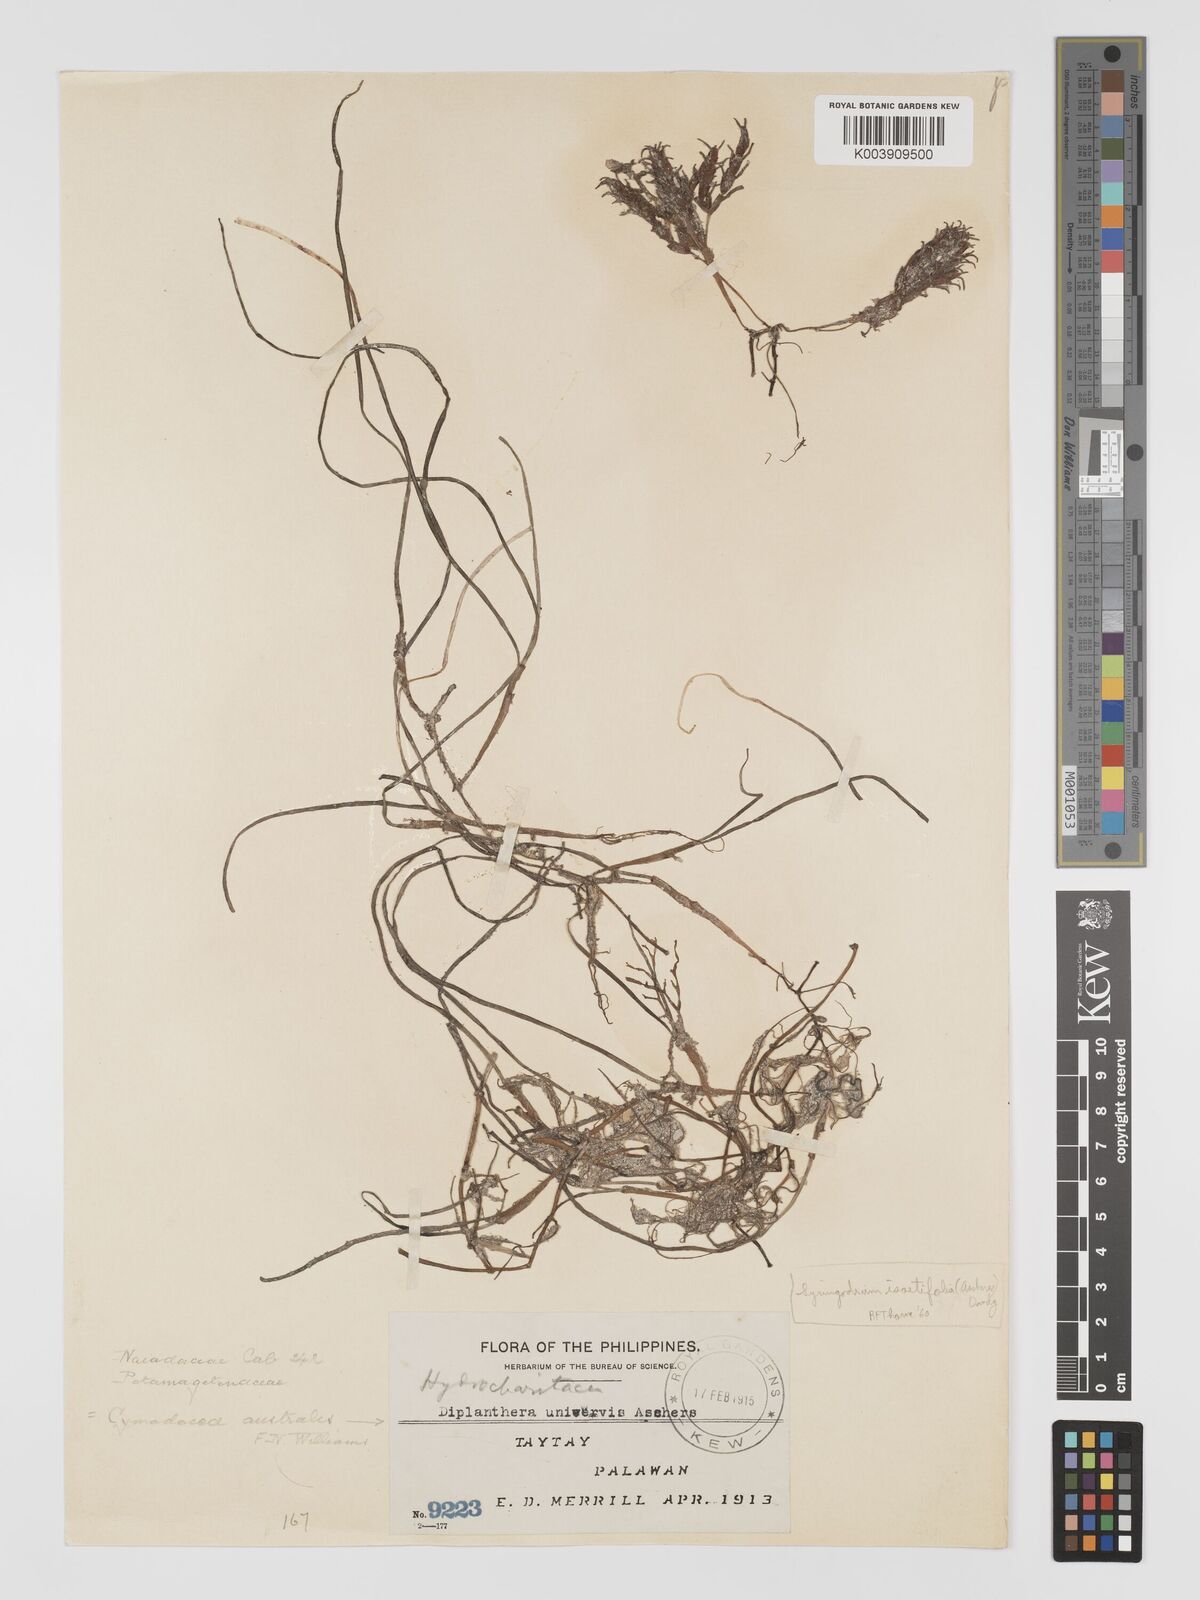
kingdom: Plantae
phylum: Tracheophyta
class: Liliopsida
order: Alismatales
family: Cymodoceaceae
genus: Syringodium
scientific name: Syringodium isoetifolium
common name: Species code: si
